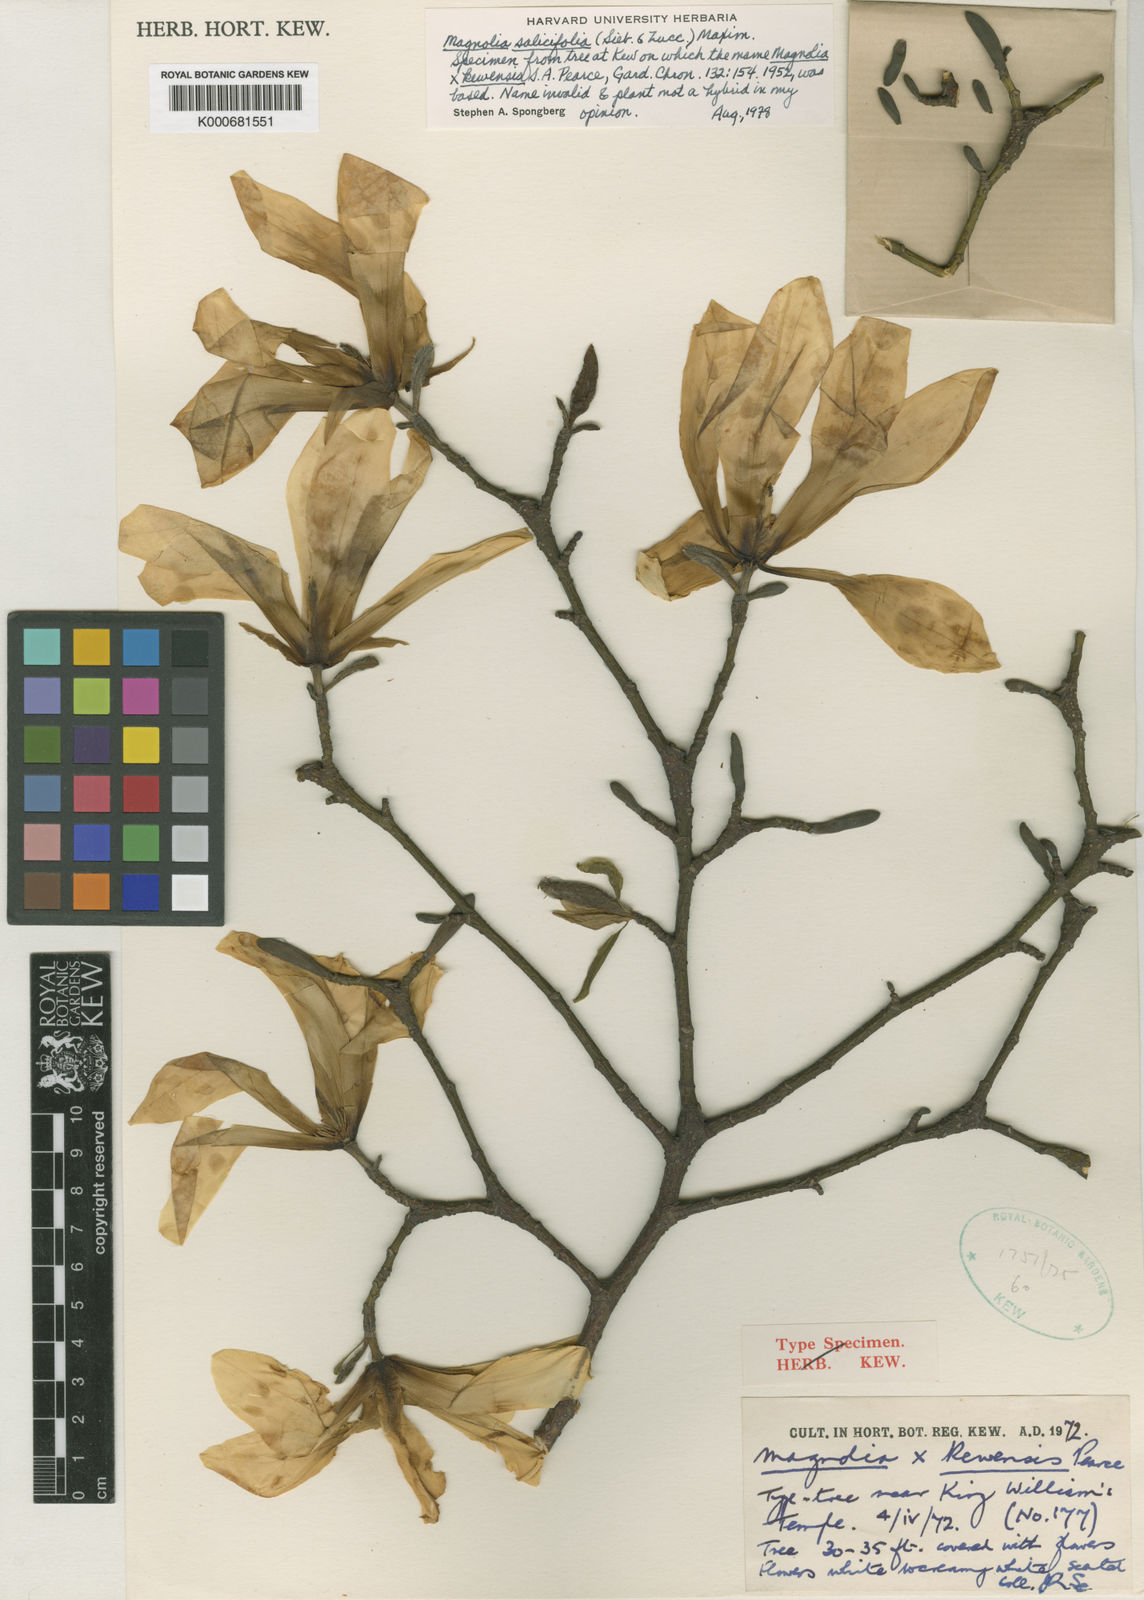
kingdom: Plantae
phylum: Tracheophyta
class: Magnoliopsida
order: Magnoliales
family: Magnoliaceae
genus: Magnolia
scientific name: Magnolia salicifolia
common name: Anise magnolia
